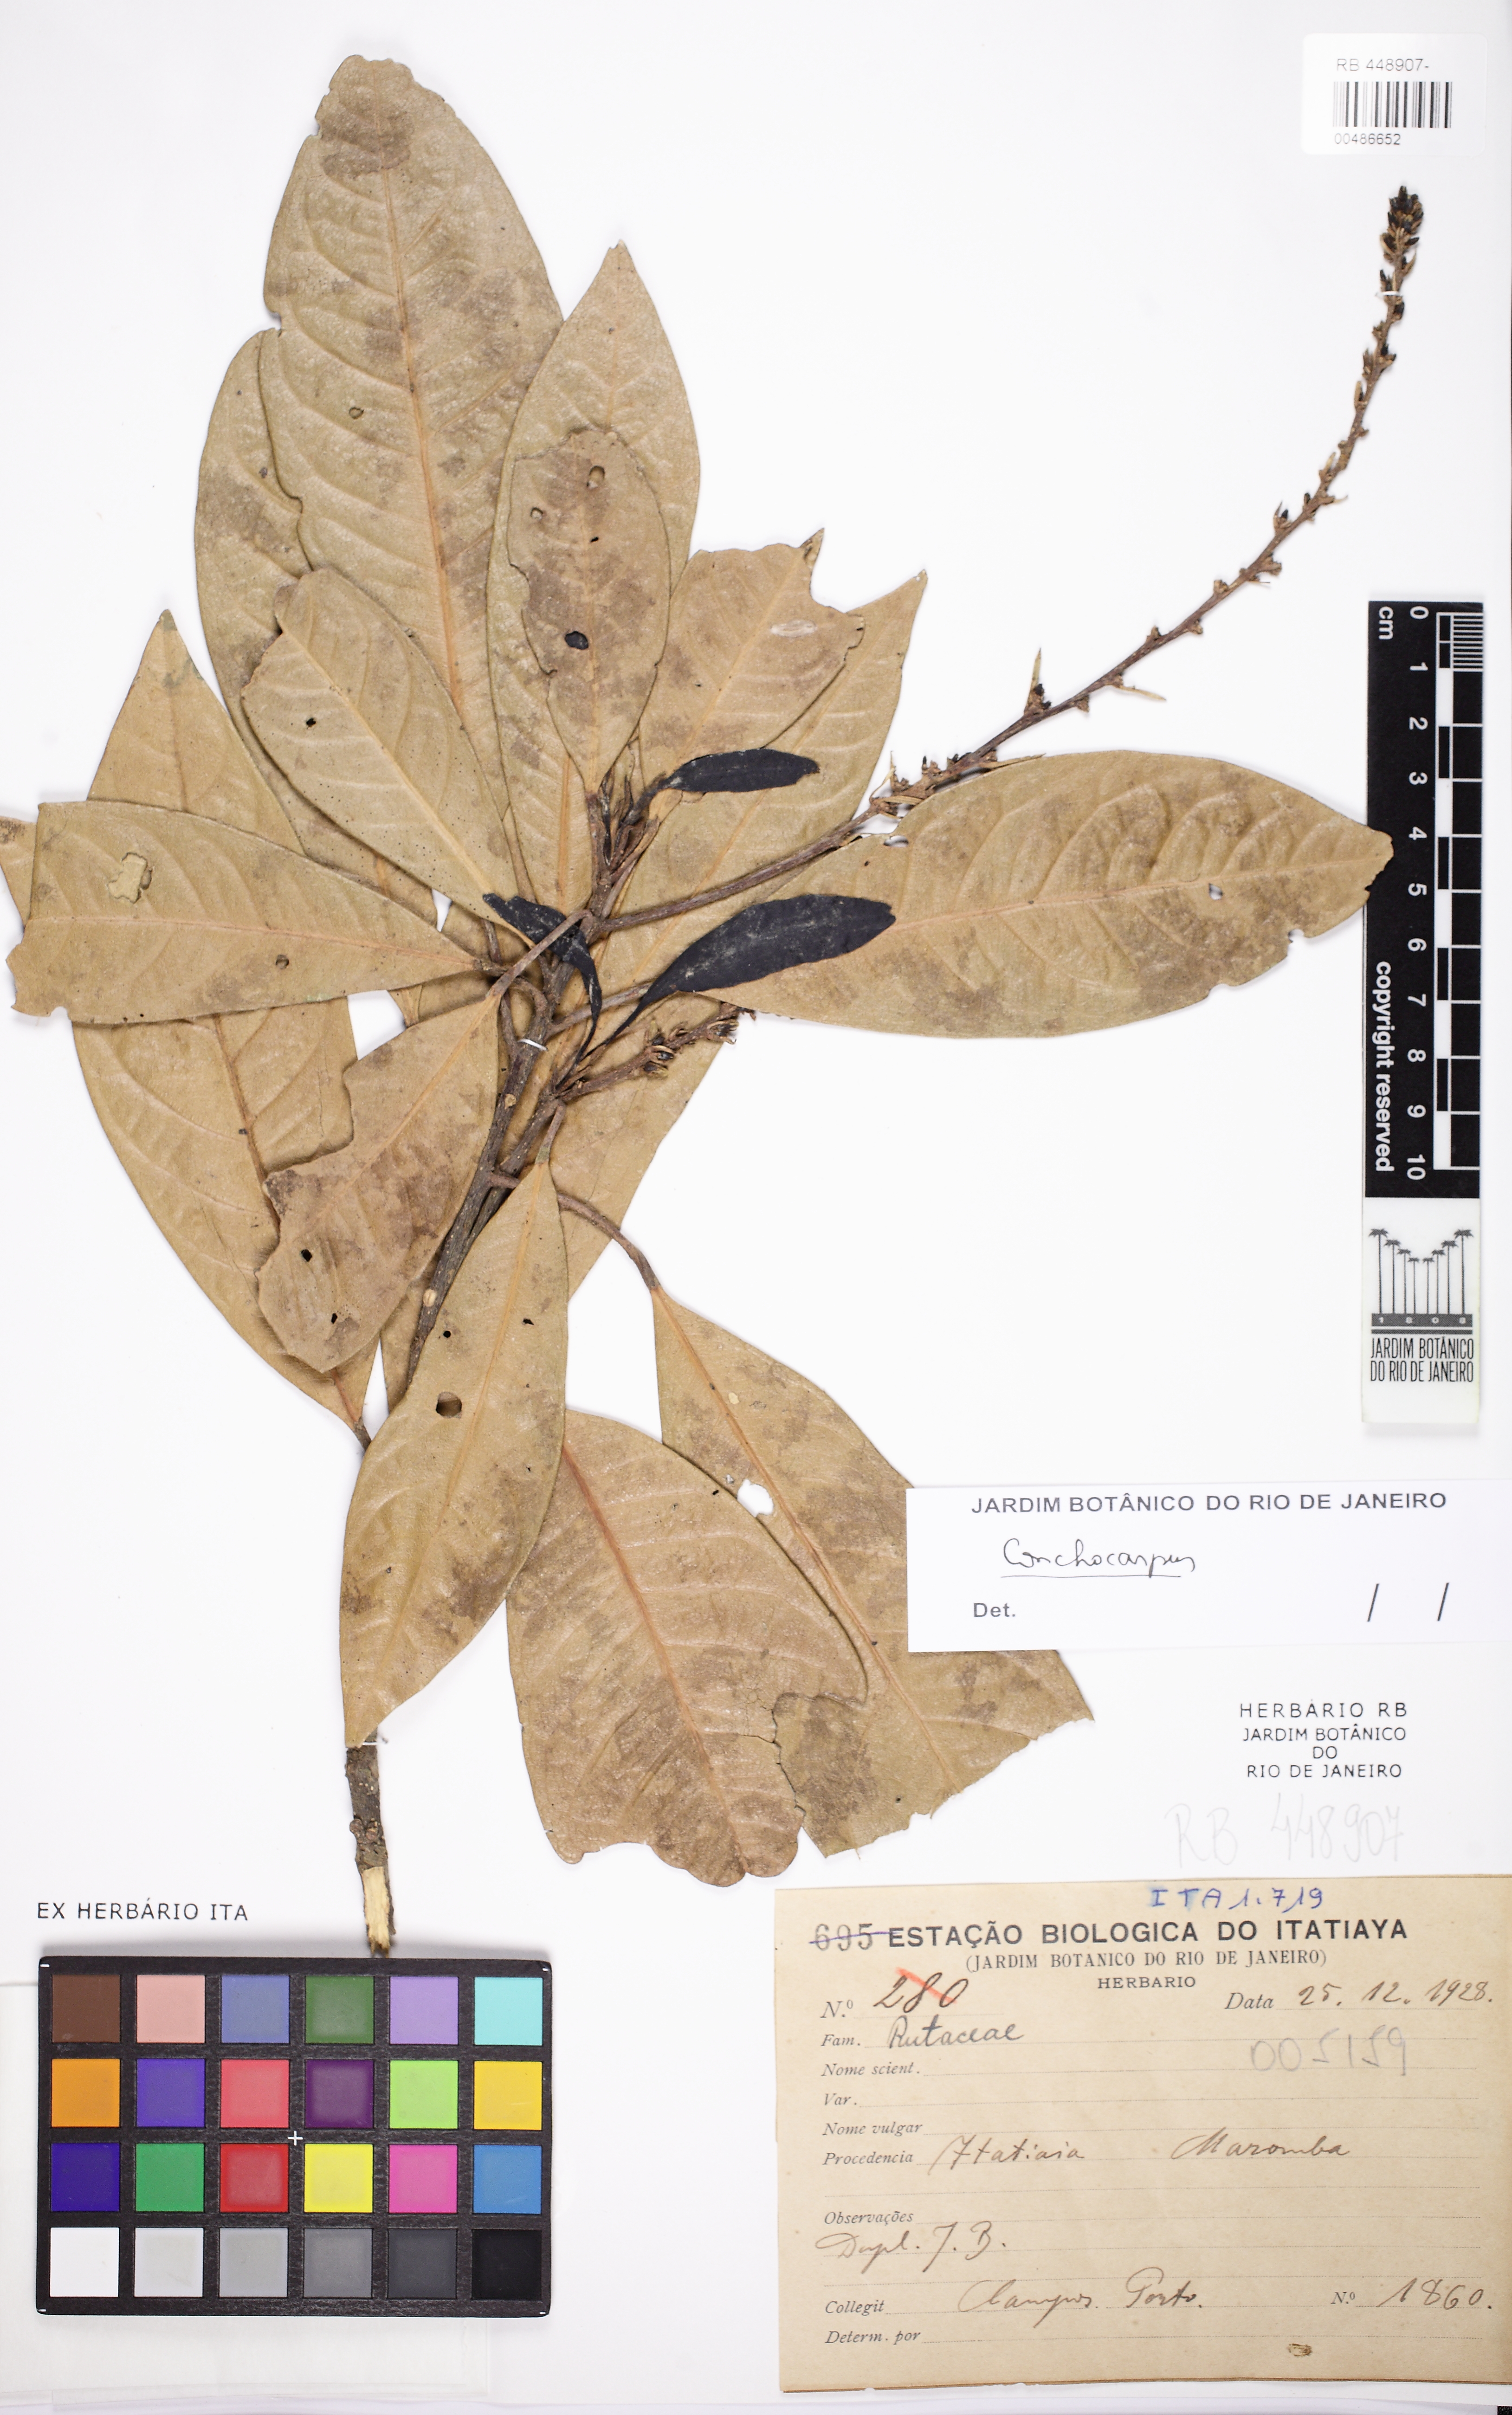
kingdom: Plantae
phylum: Tracheophyta
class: Magnoliopsida
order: Sapindales
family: Rutaceae
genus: Conchocarpus
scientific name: Conchocarpus
